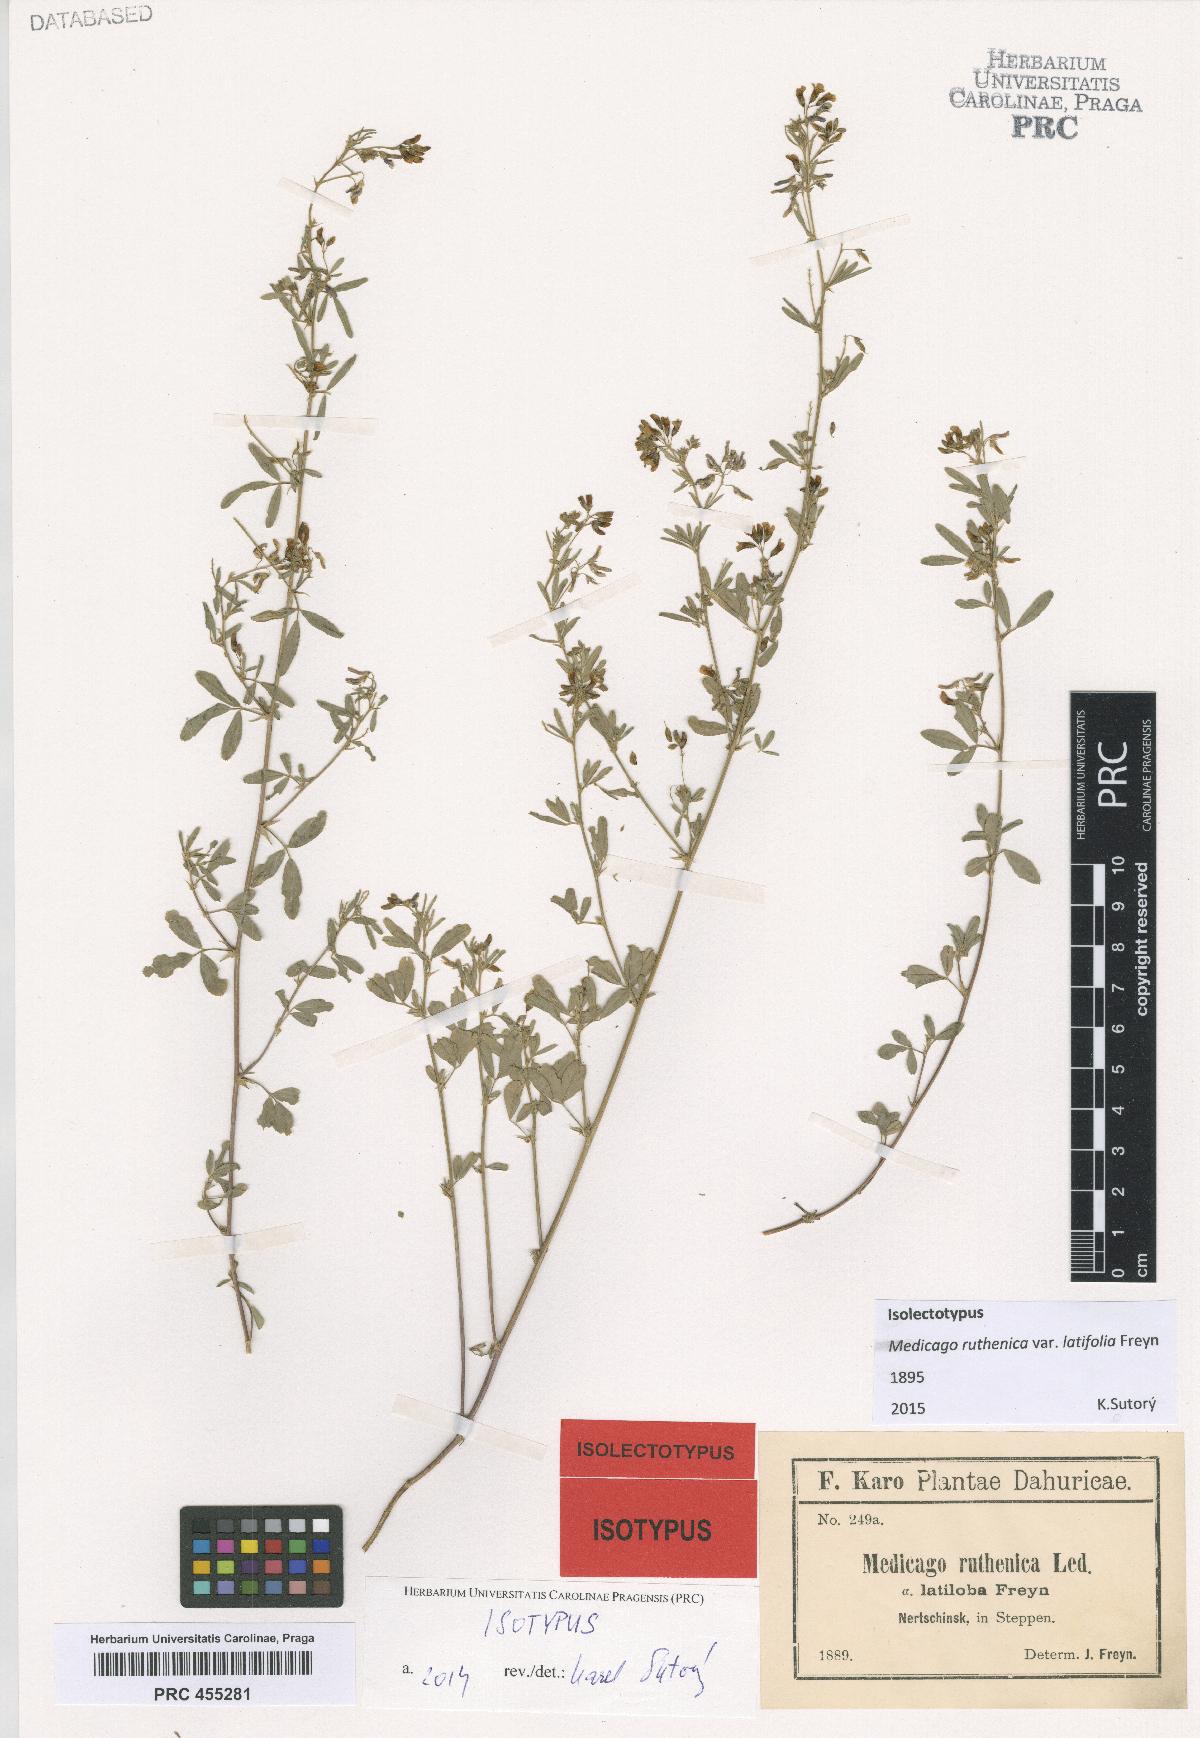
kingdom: Plantae
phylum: Tracheophyta
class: Magnoliopsida
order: Fabales
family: Fabaceae
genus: Medicago
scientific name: Medicago ruthenica
